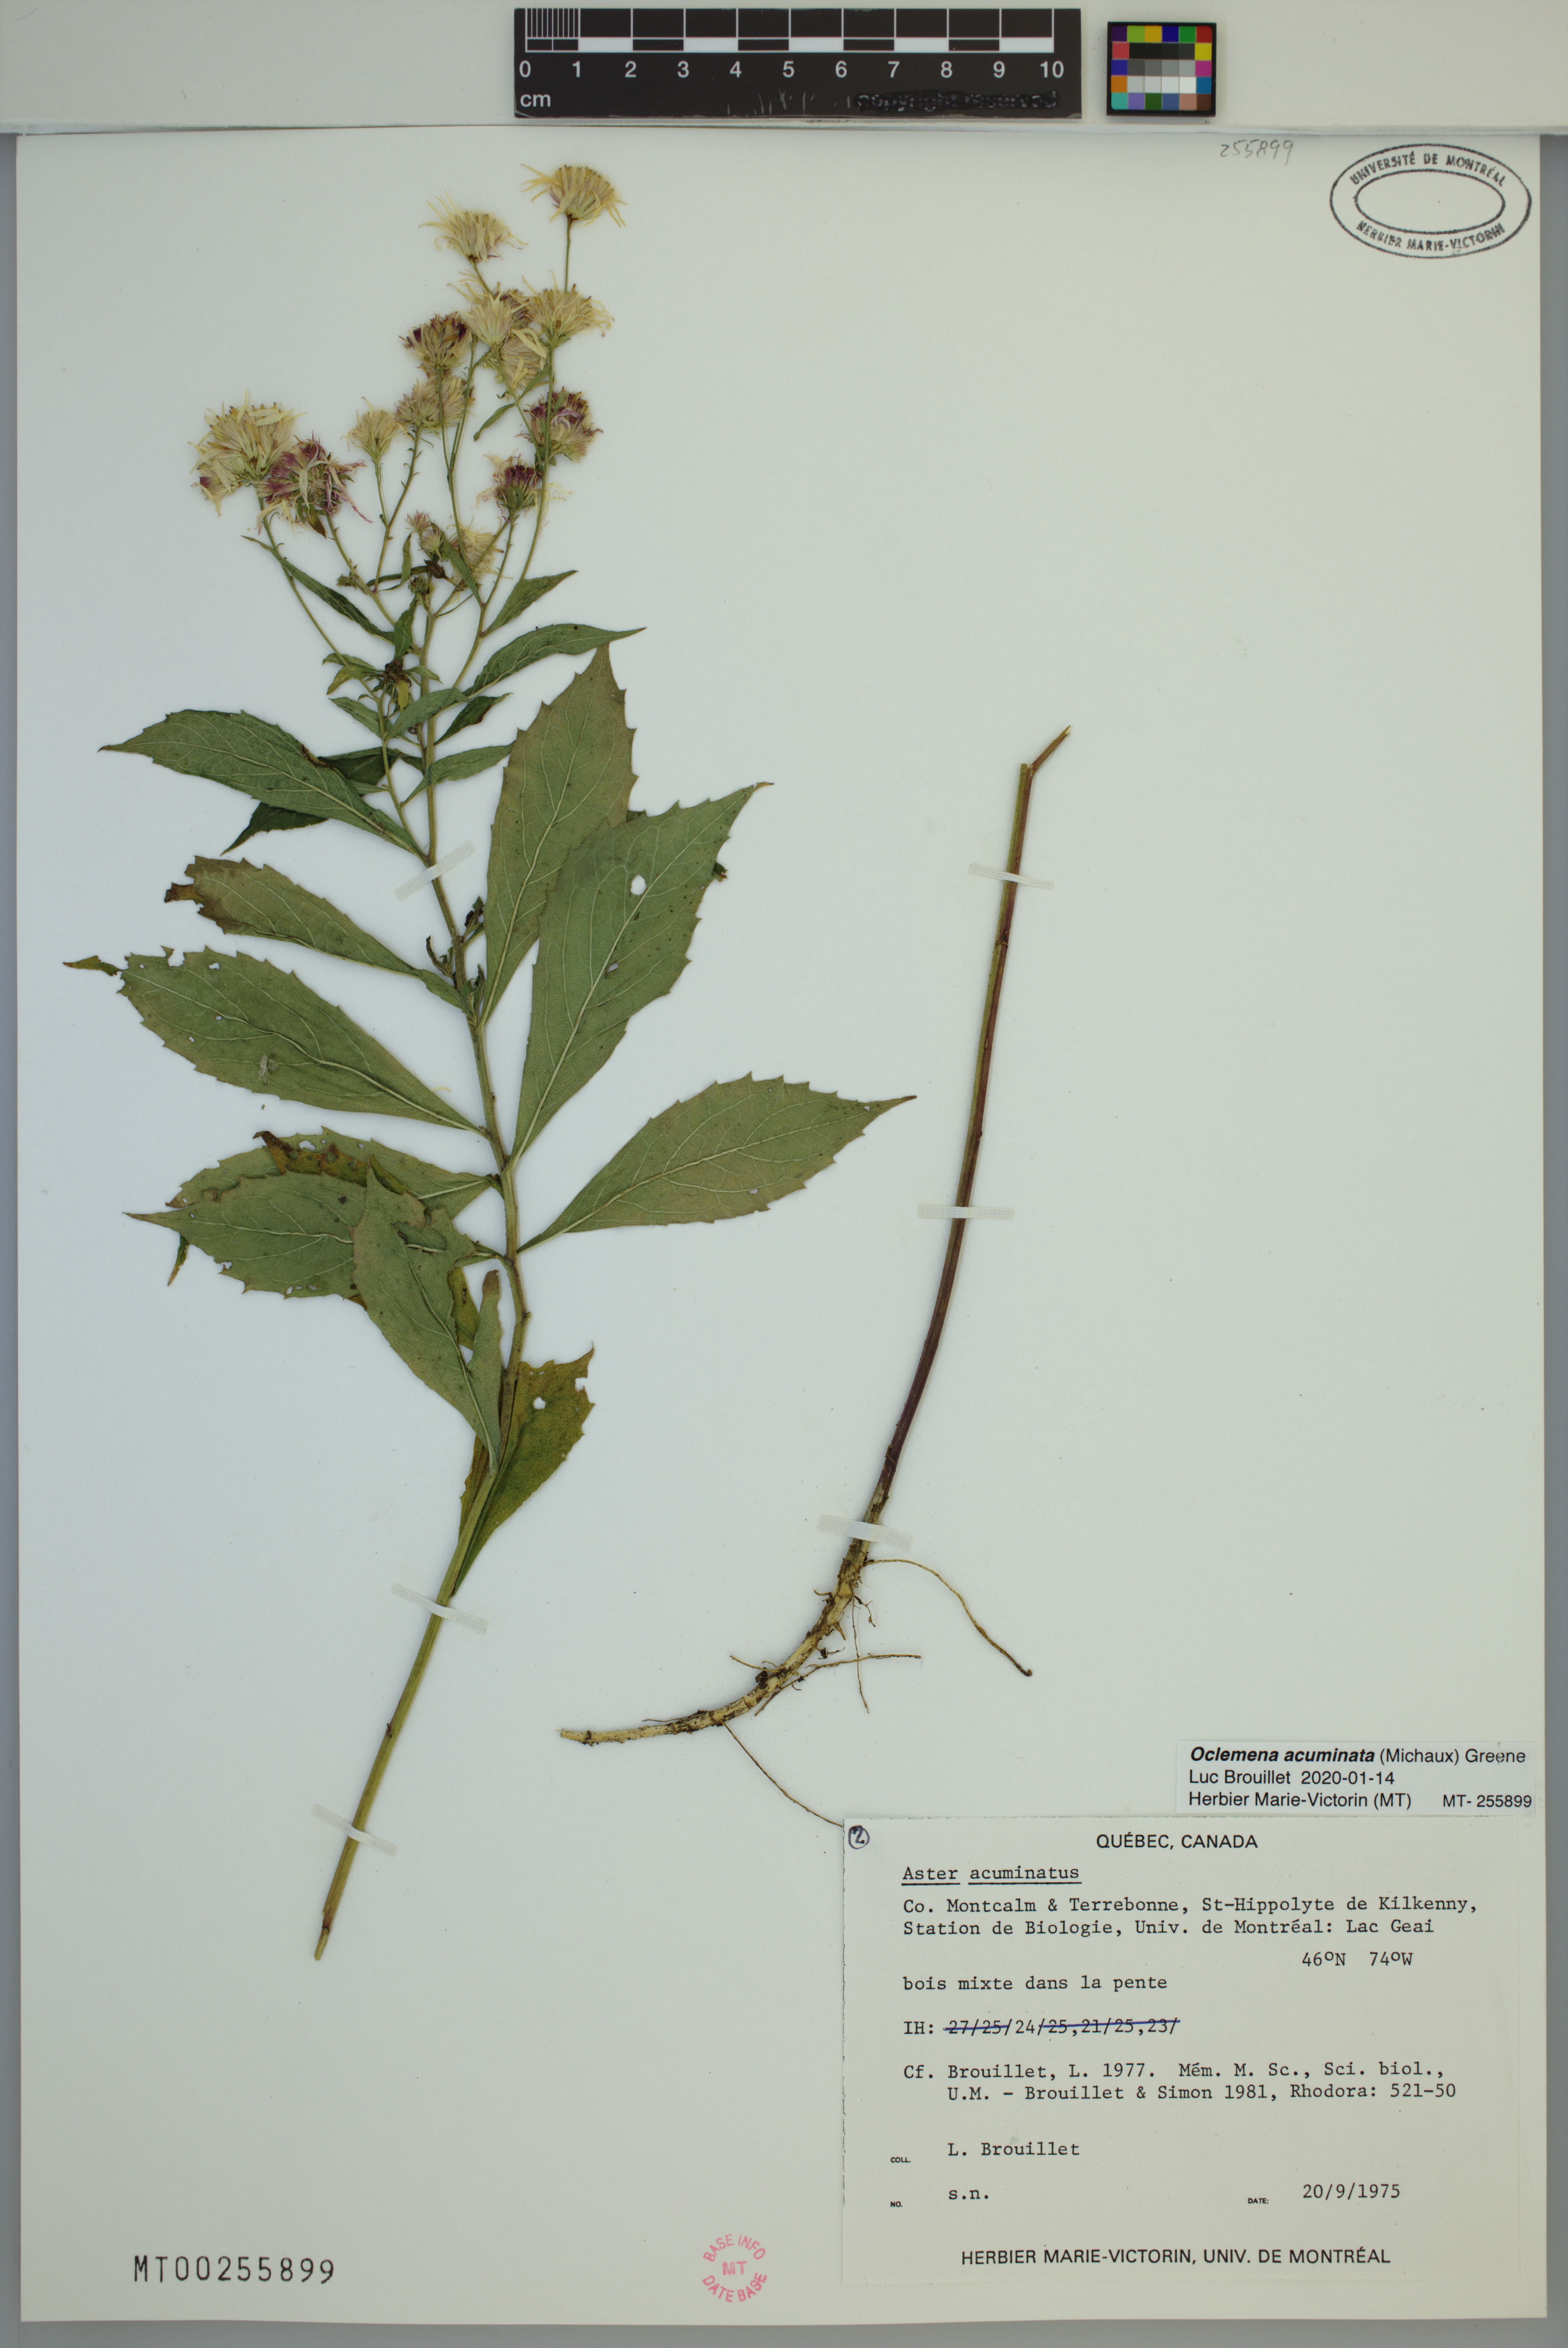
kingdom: Plantae
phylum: Tracheophyta
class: Magnoliopsida
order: Asterales
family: Asteraceae
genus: Oclemena
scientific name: Oclemena acuminata
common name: Mountain aster
